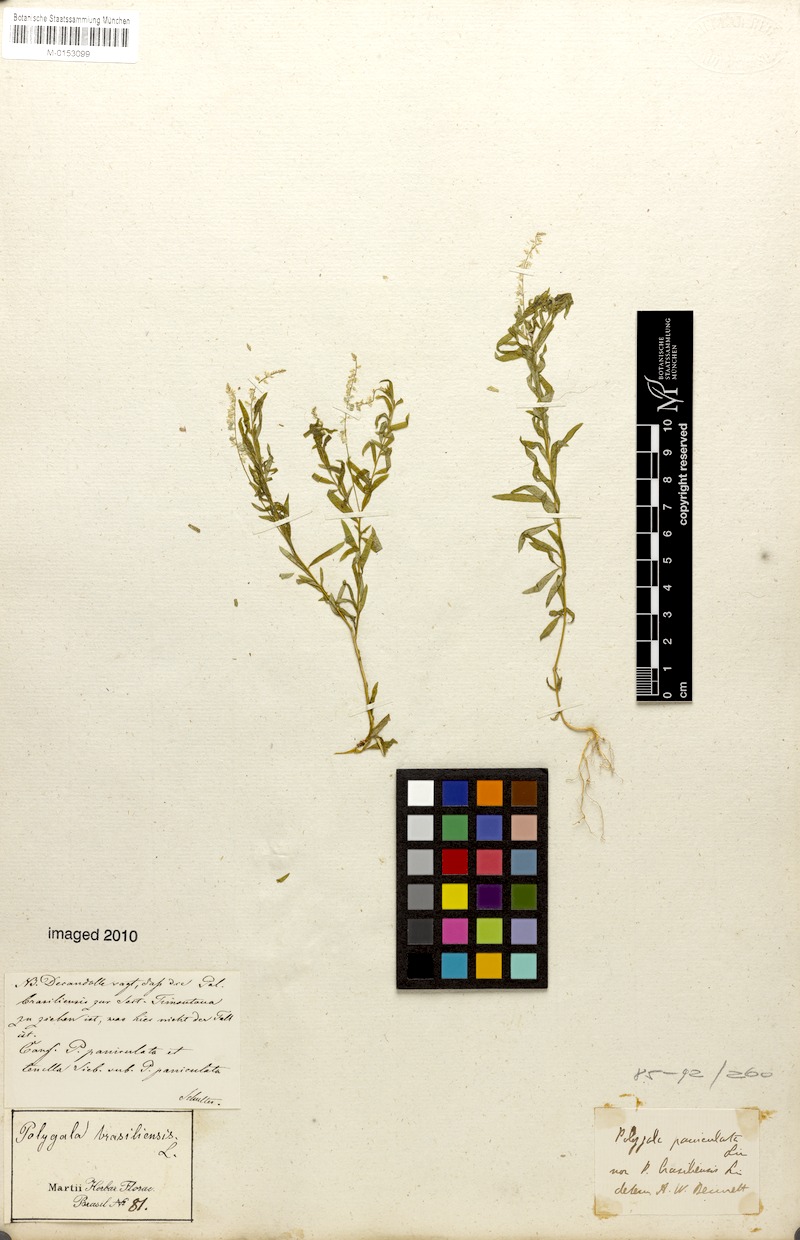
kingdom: Plantae
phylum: Tracheophyta
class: Magnoliopsida
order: Fabales
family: Polygalaceae
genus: Polygala
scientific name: Polygala brasiliensis
